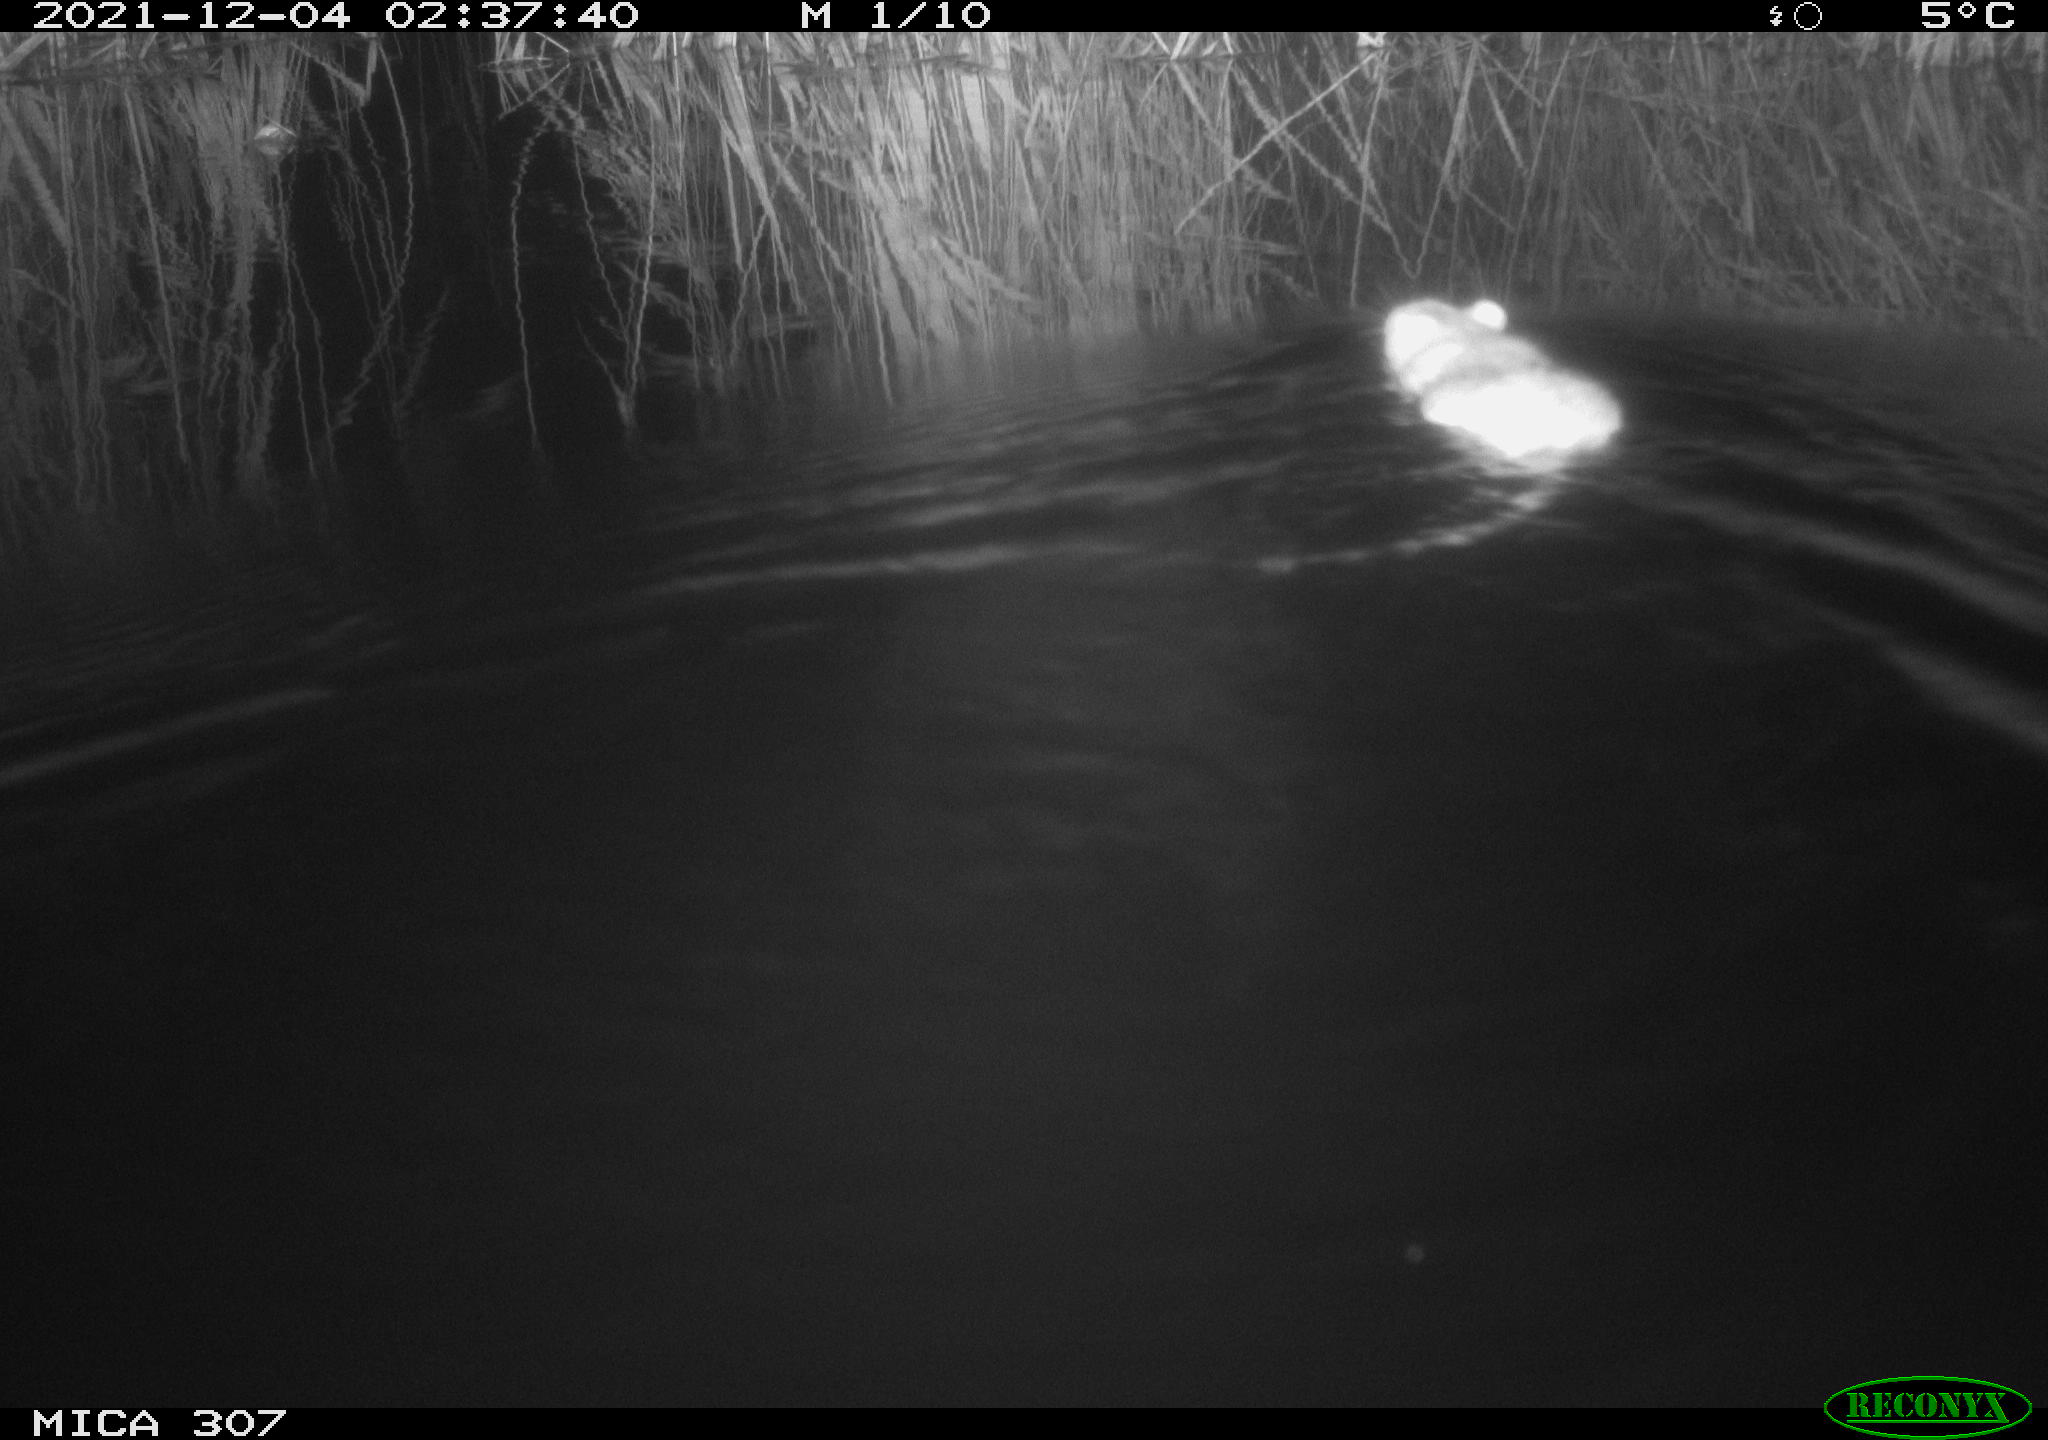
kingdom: Animalia
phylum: Chordata
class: Mammalia
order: Rodentia
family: Cricetidae
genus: Ondatra
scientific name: Ondatra zibethicus
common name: Muskrat
